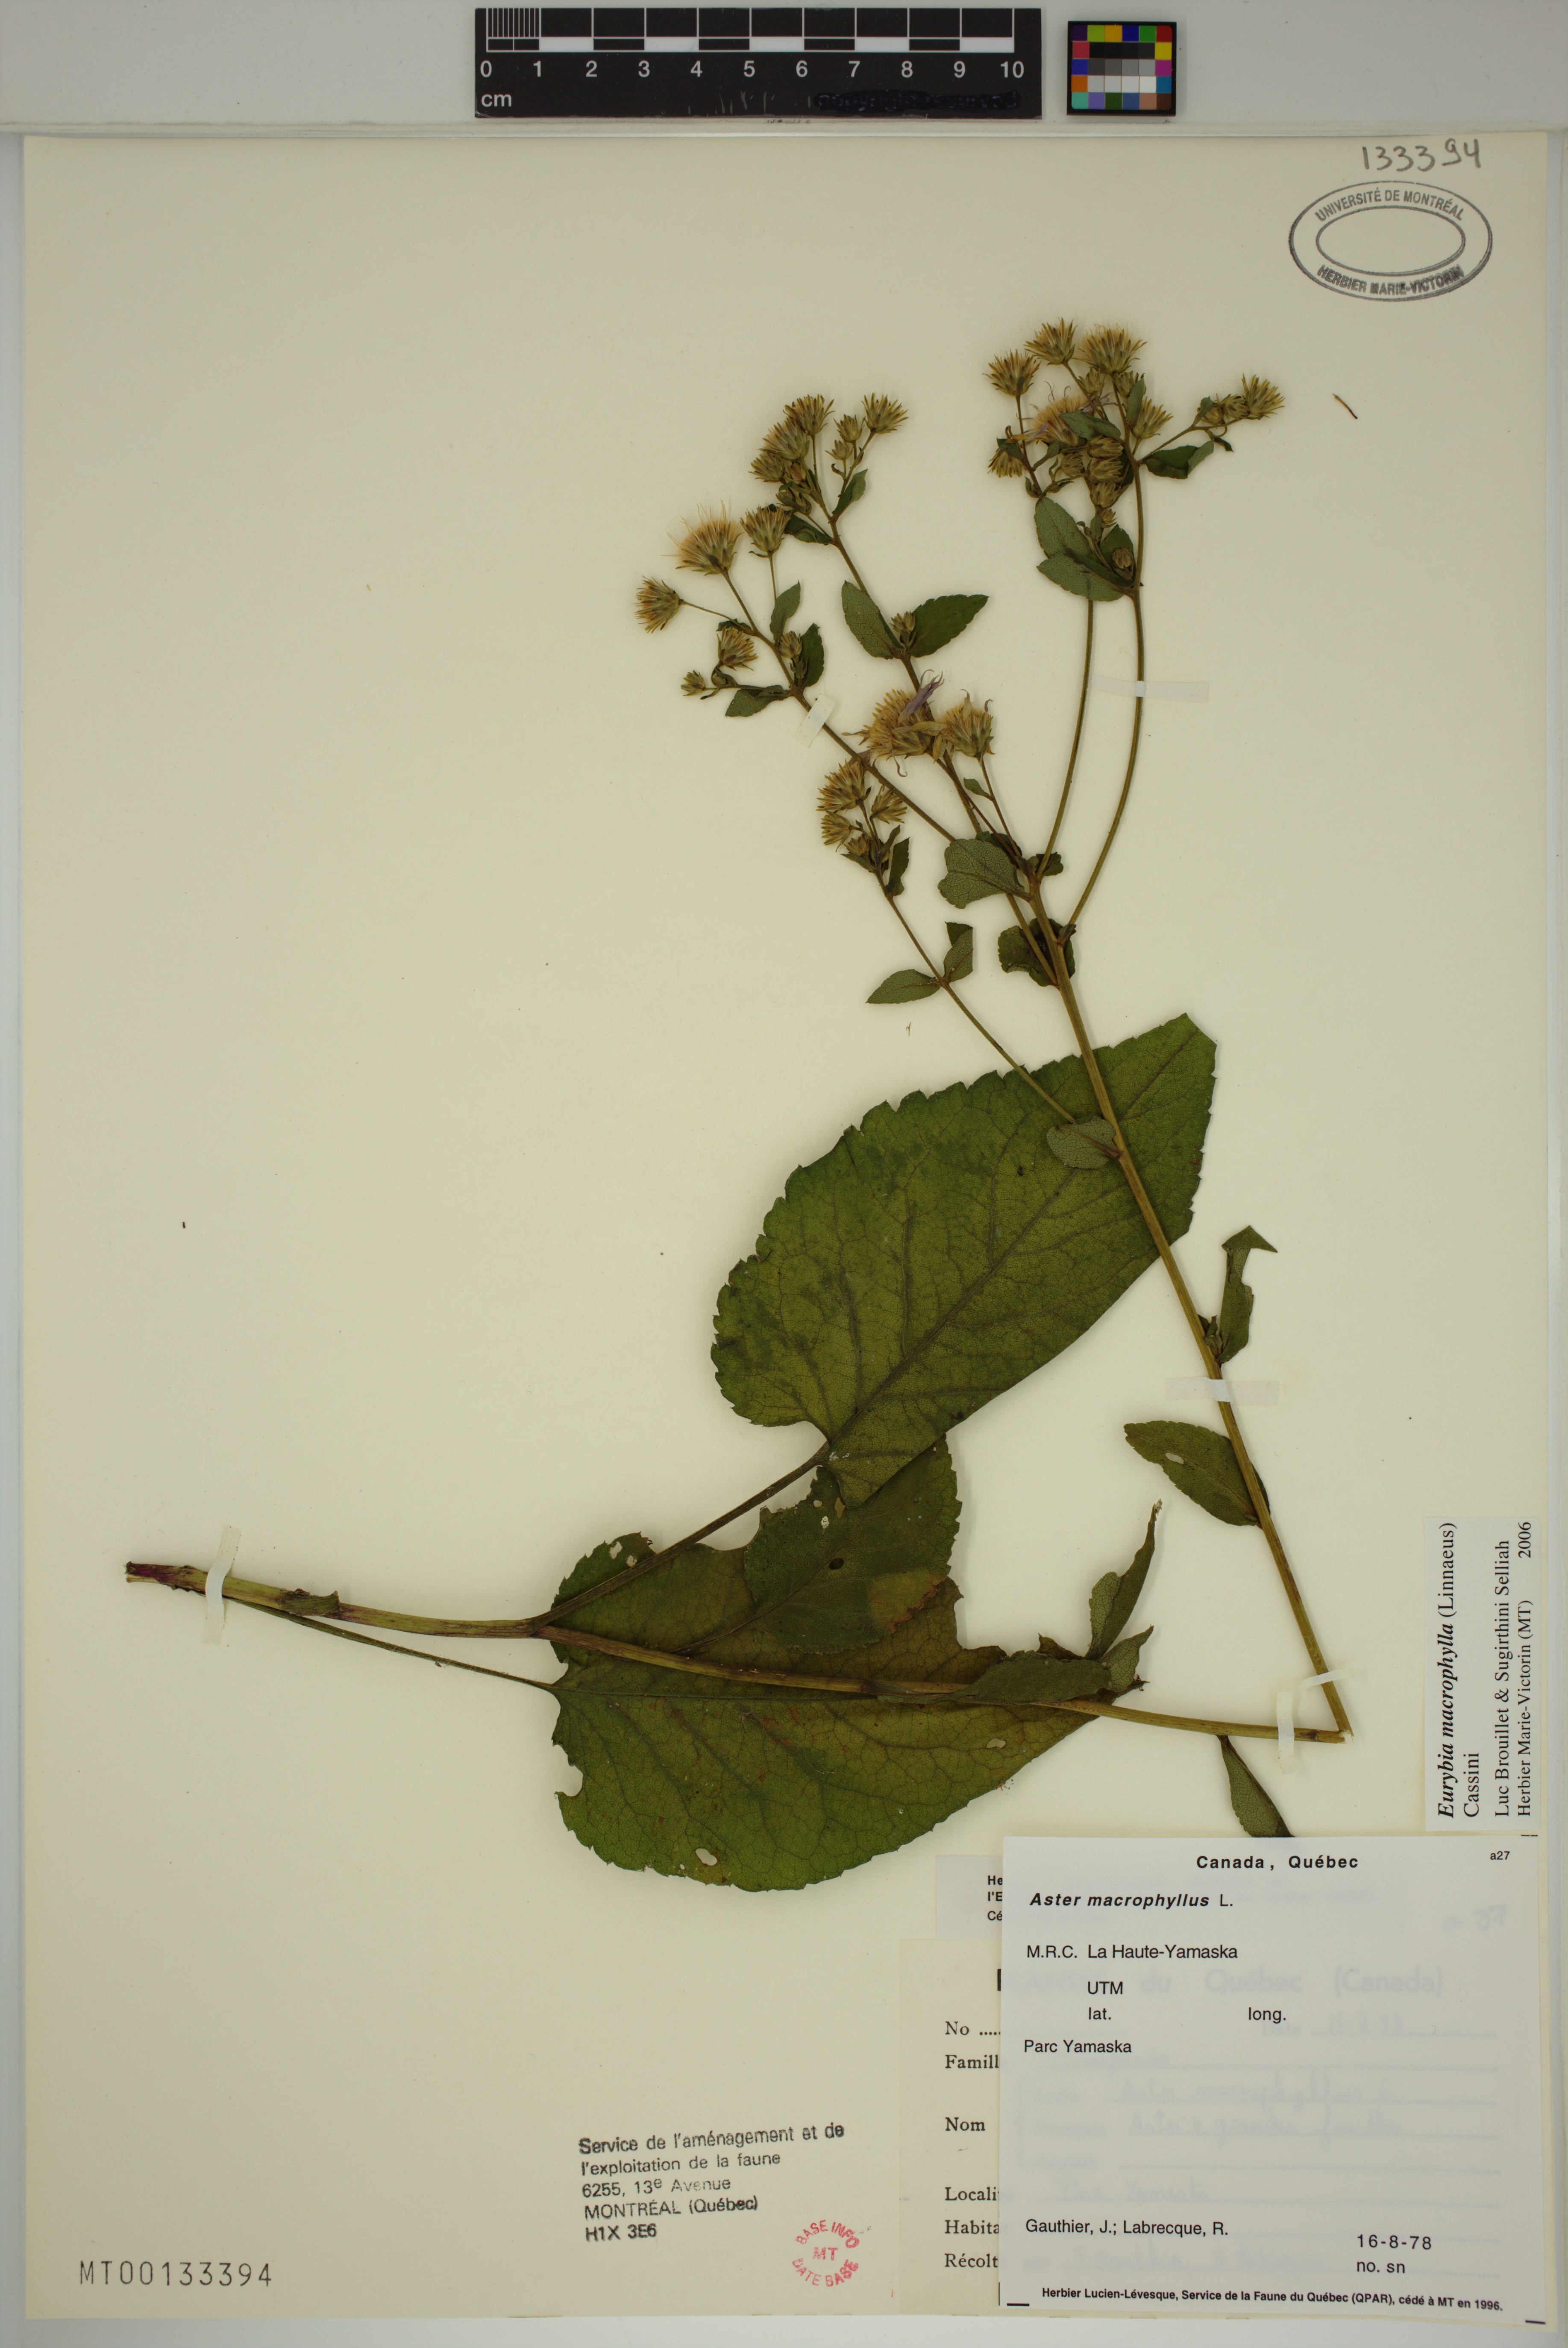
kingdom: Plantae
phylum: Tracheophyta
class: Magnoliopsida
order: Asterales
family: Asteraceae
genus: Eurybia
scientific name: Eurybia macrophylla
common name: Big-leaved aster
